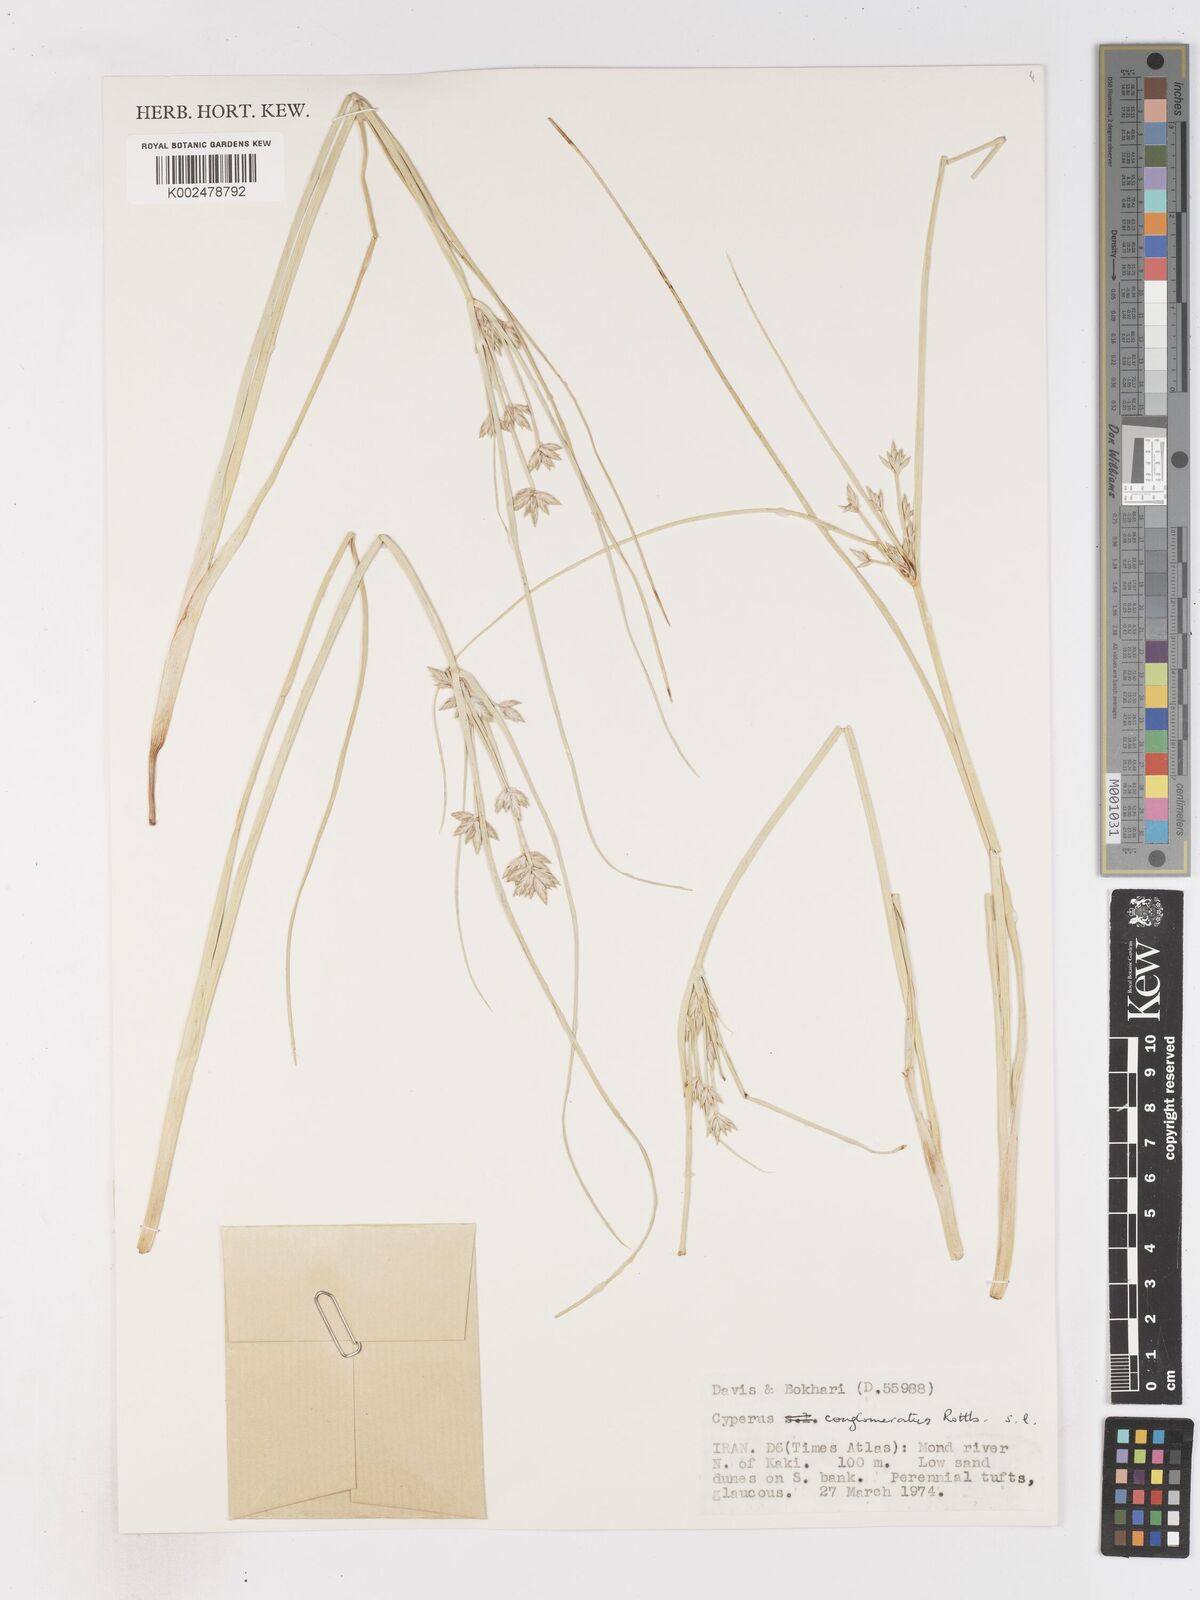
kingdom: Plantae
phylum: Tracheophyta
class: Liliopsida
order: Poales
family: Cyperaceae
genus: Cyperus
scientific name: Cyperus aucheri
